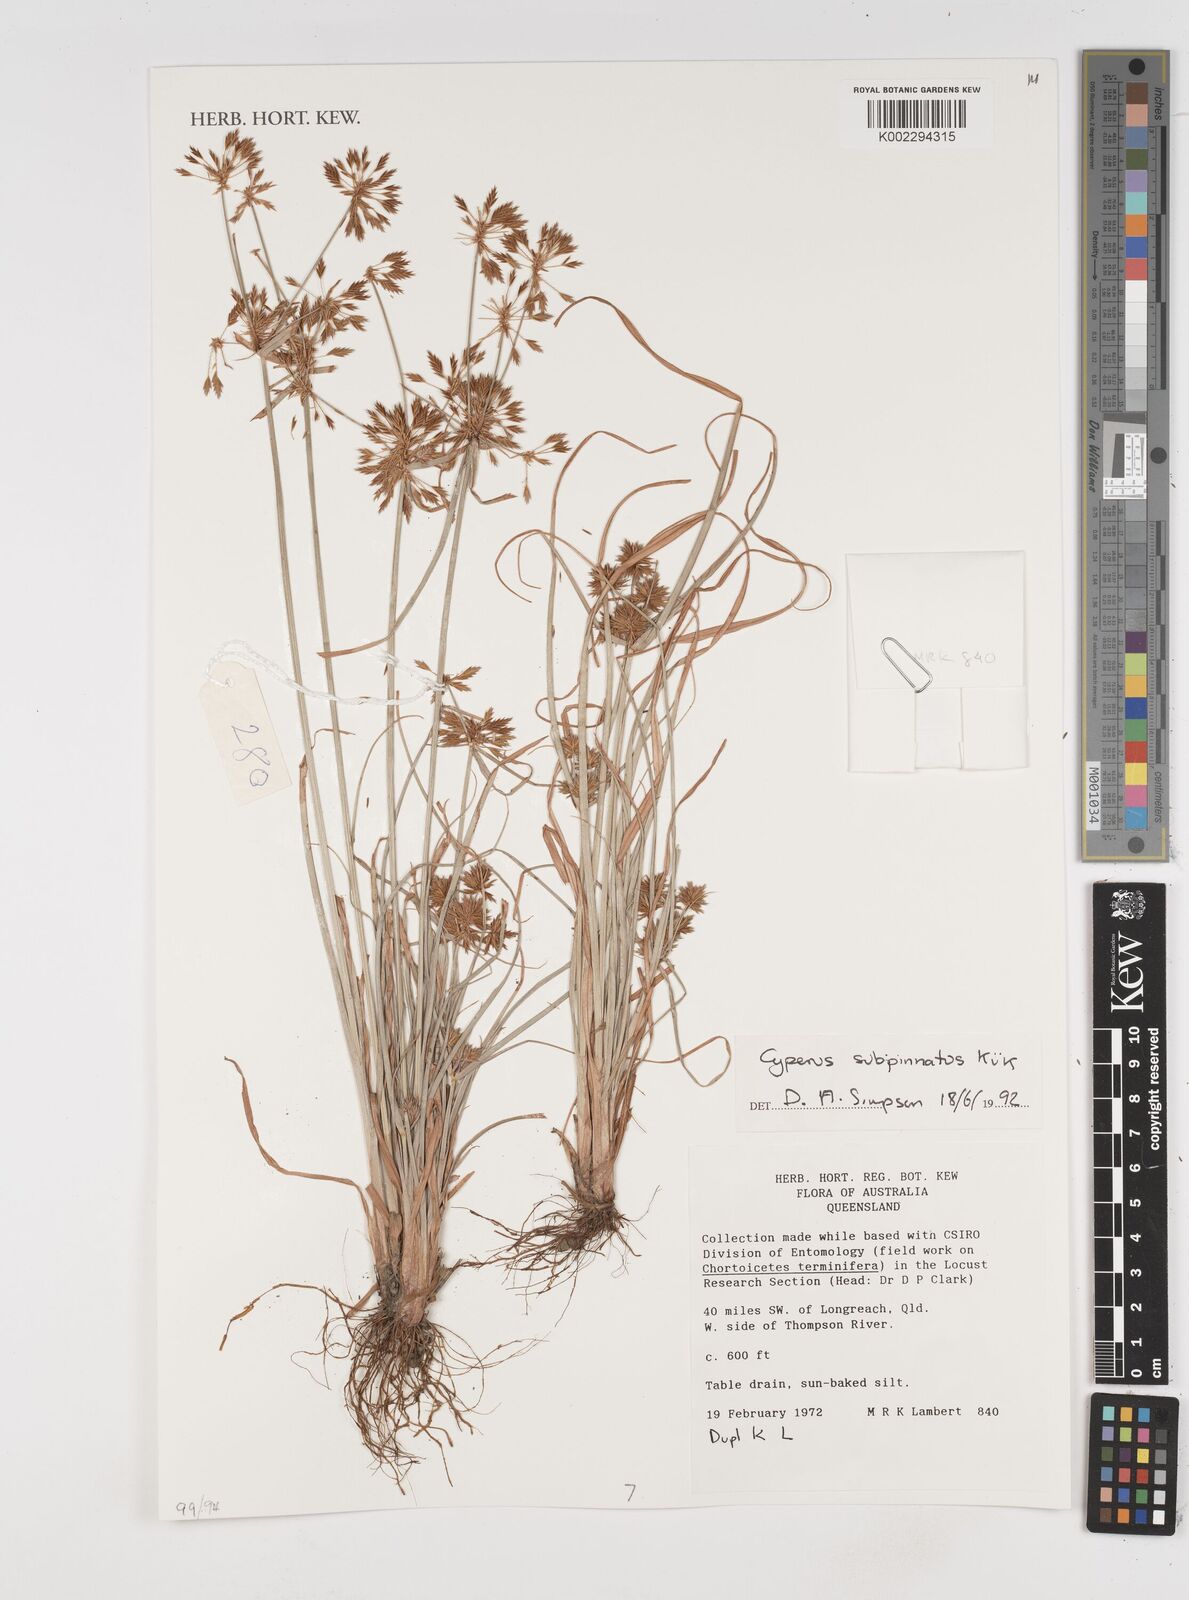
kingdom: Plantae
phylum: Tracheophyta
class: Liliopsida
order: Poales
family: Cyperaceae
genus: Cyperus
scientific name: Cyperus rigidellus
